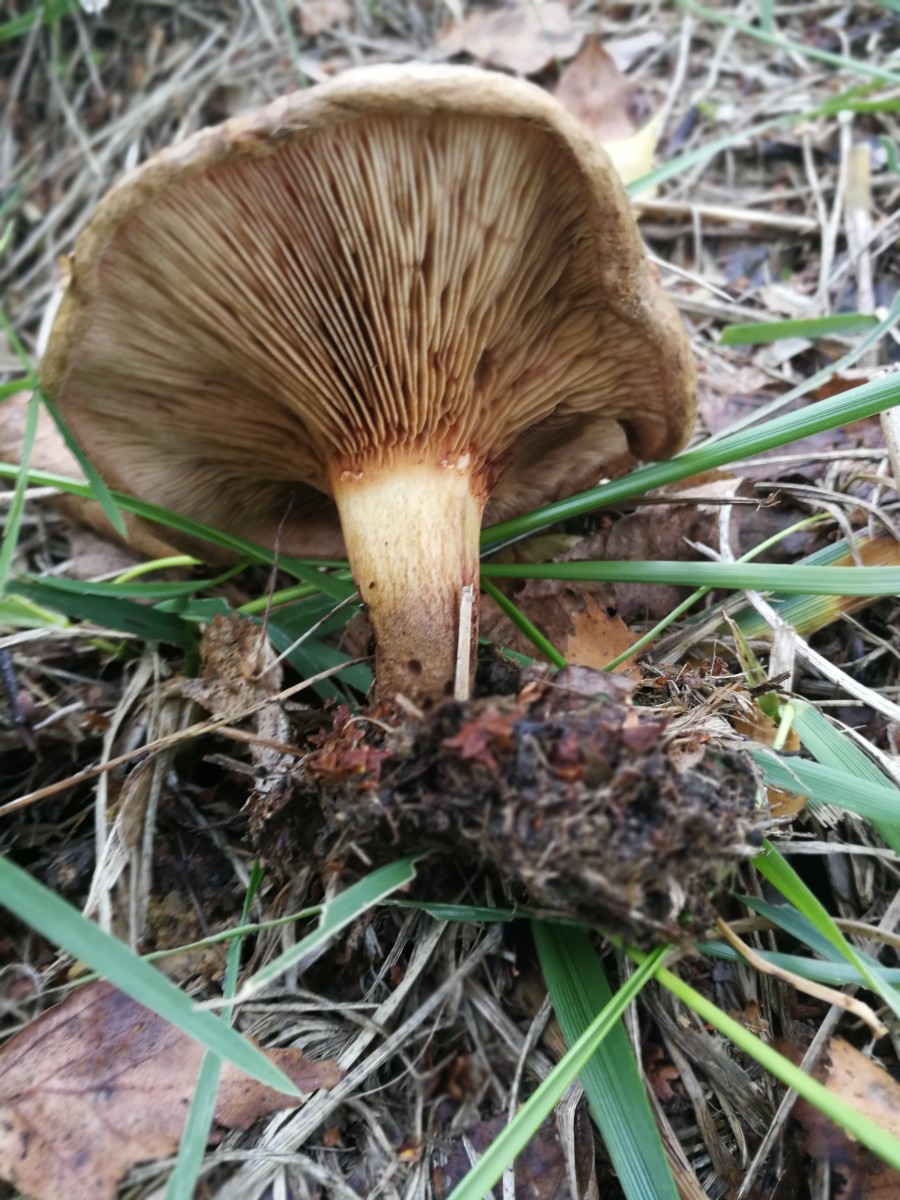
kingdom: Fungi
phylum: Basidiomycota
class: Agaricomycetes
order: Boletales
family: Paxillaceae
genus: Paxillus
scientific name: Paxillus involutus
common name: almindelig netbladhat
